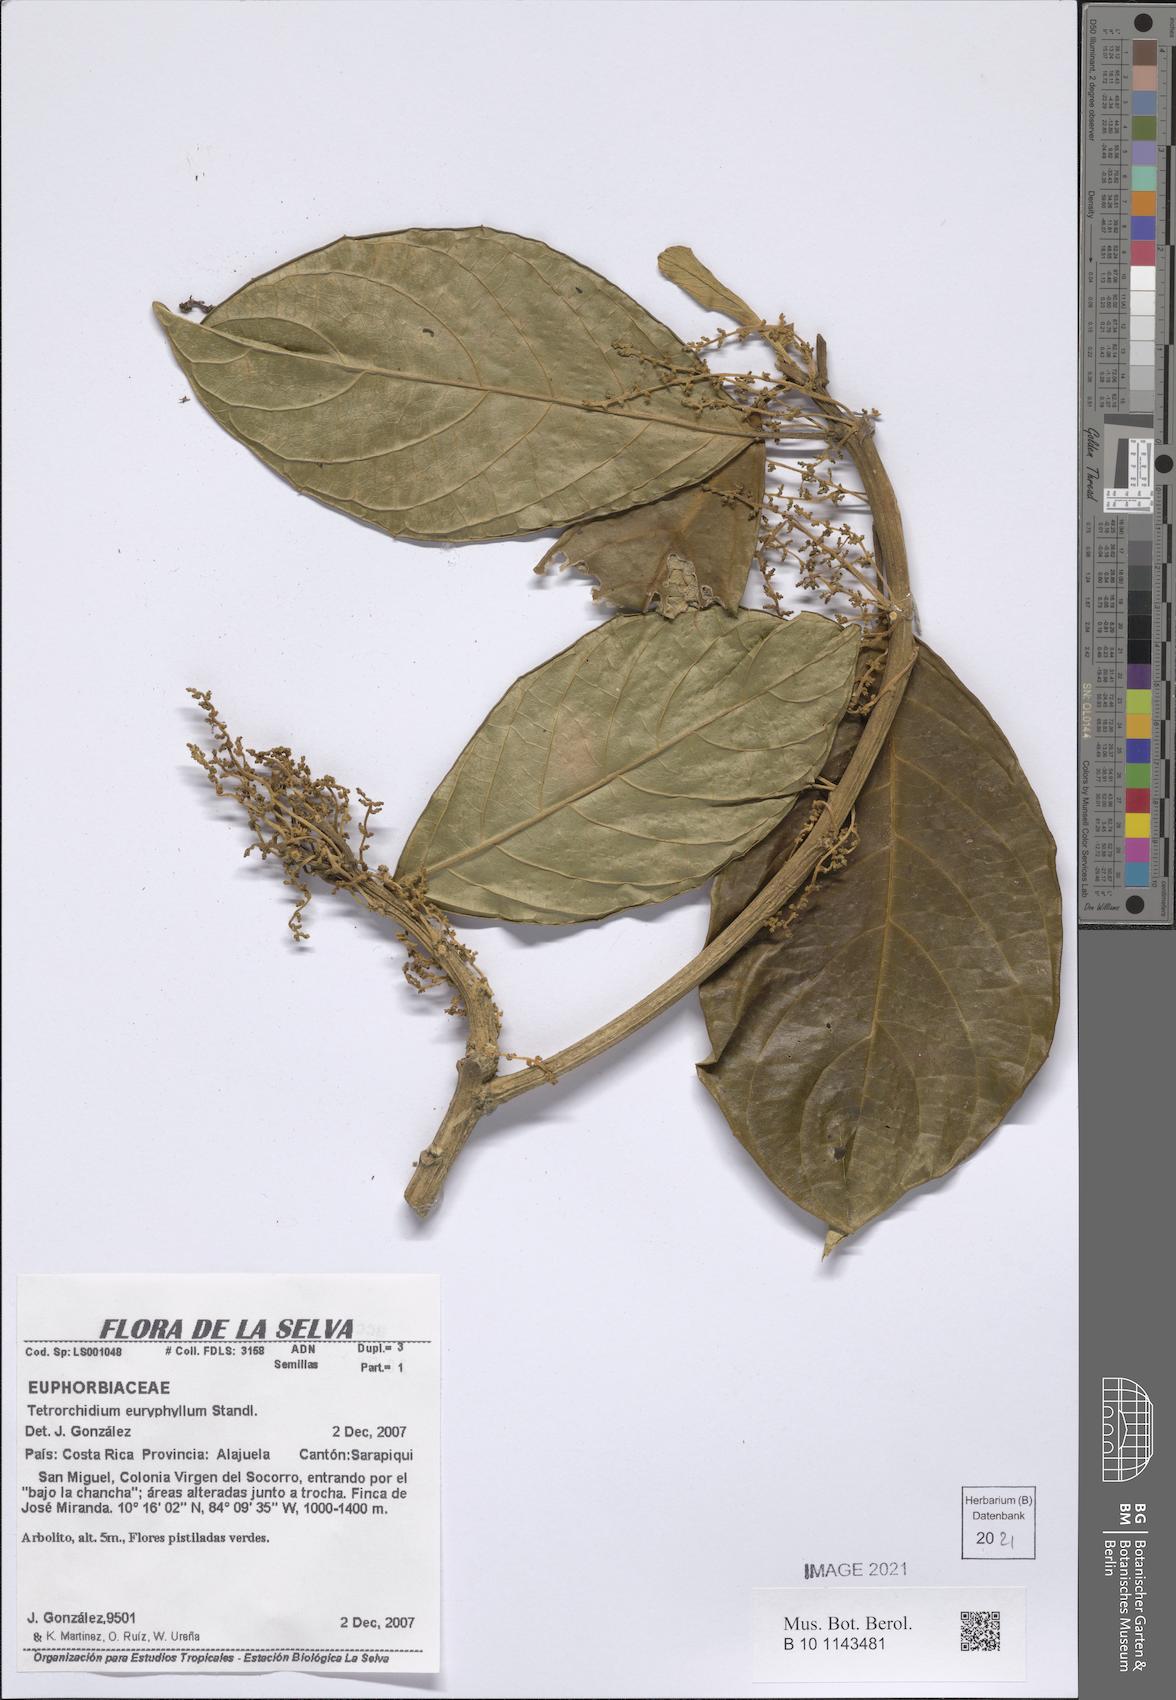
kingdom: Plantae
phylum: Tracheophyta
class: Magnoliopsida
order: Malpighiales
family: Euphorbiaceae
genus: Tetrorchidium
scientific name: Tetrorchidium euryphyllum
